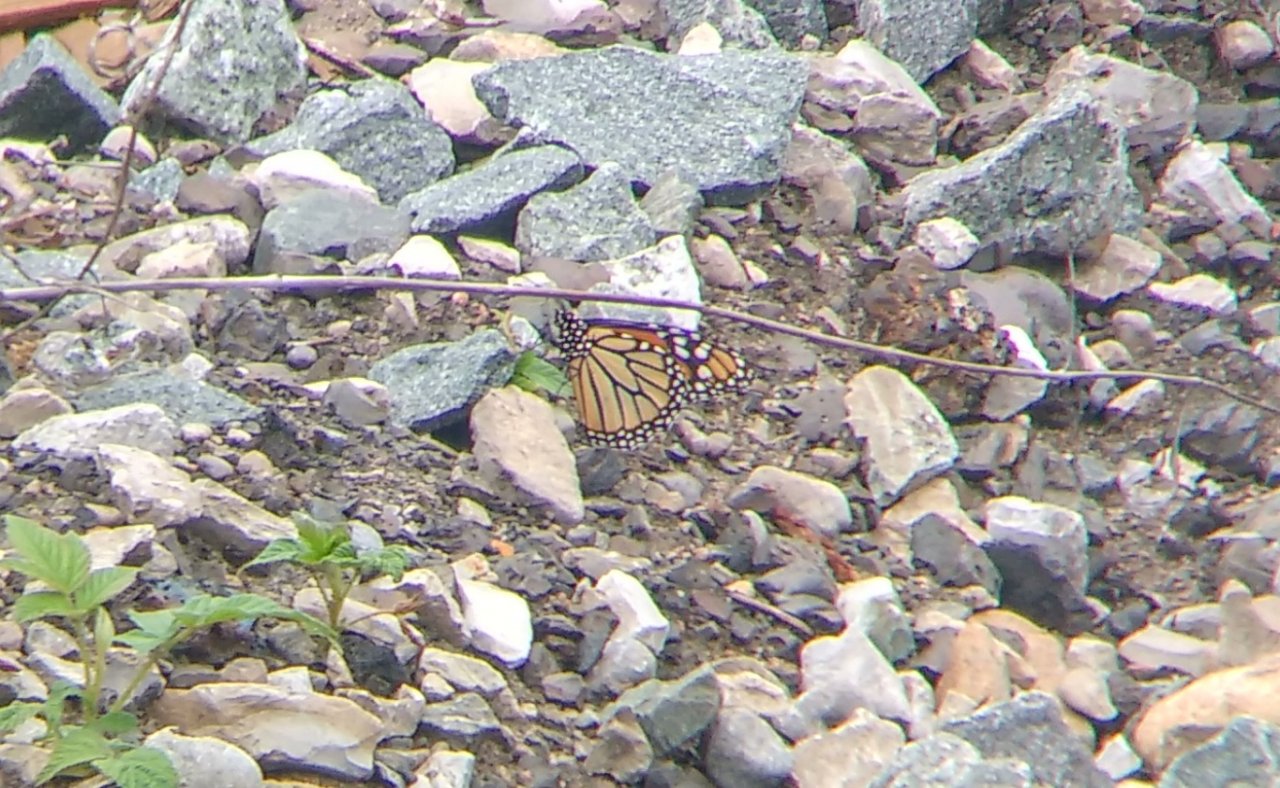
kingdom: Animalia
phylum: Arthropoda
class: Insecta
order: Lepidoptera
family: Nymphalidae
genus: Danaus
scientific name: Danaus plexippus
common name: Monarch
